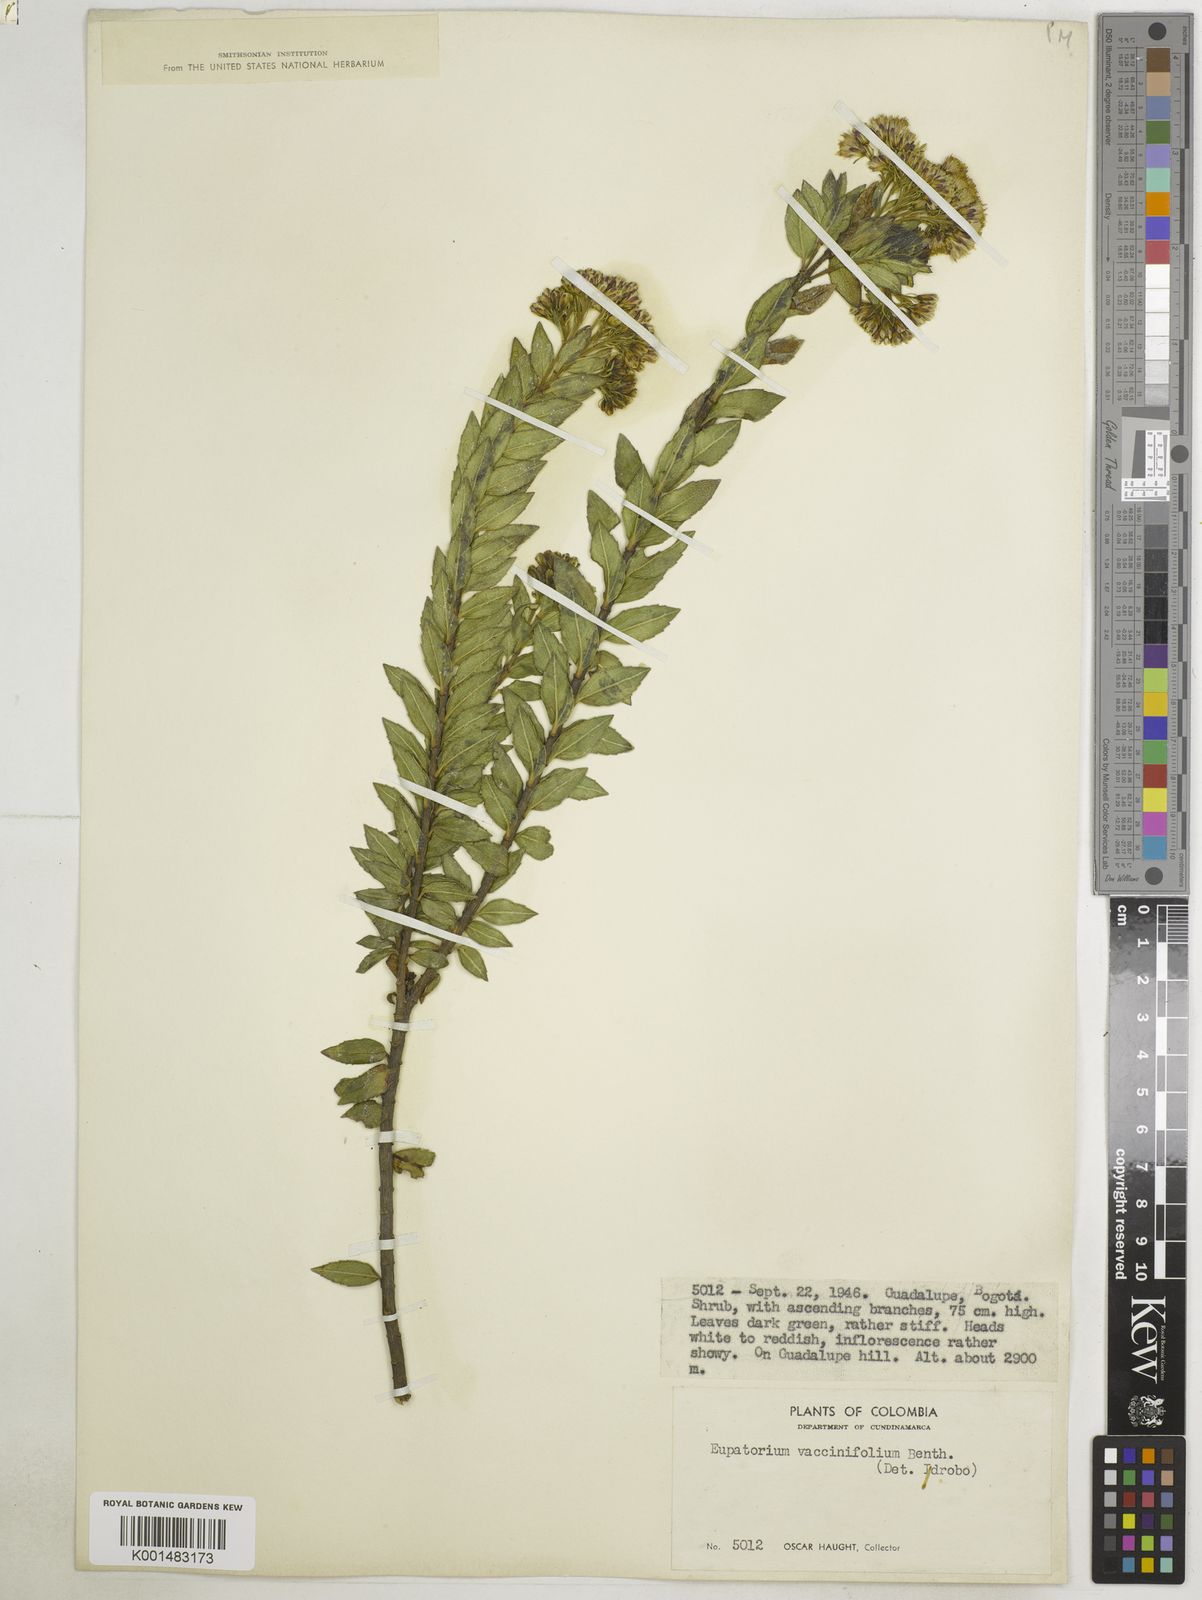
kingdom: Plantae
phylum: Tracheophyta
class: Magnoliopsida
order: Asterales
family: Asteraceae
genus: Ageratina
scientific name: Ageratina vacciniifolia
